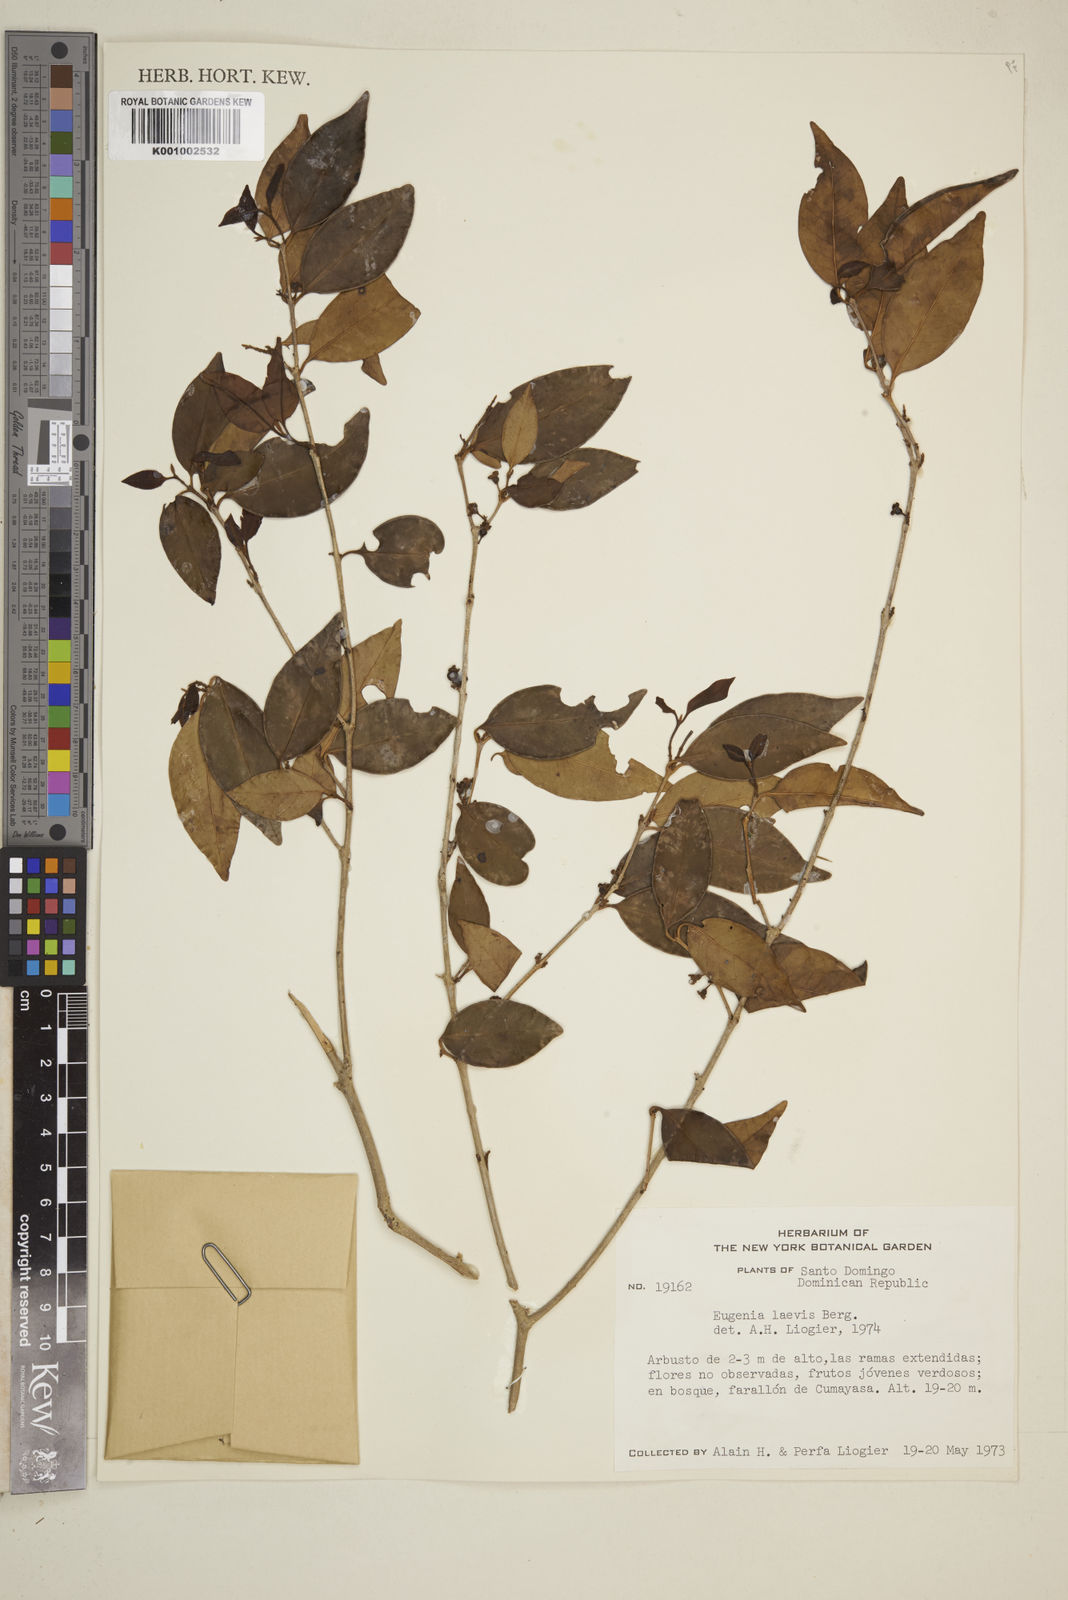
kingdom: Plantae
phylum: Tracheophyta
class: Magnoliopsida
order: Myrtales
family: Myrtaceae
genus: Eugenia
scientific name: Eugenia laevis
